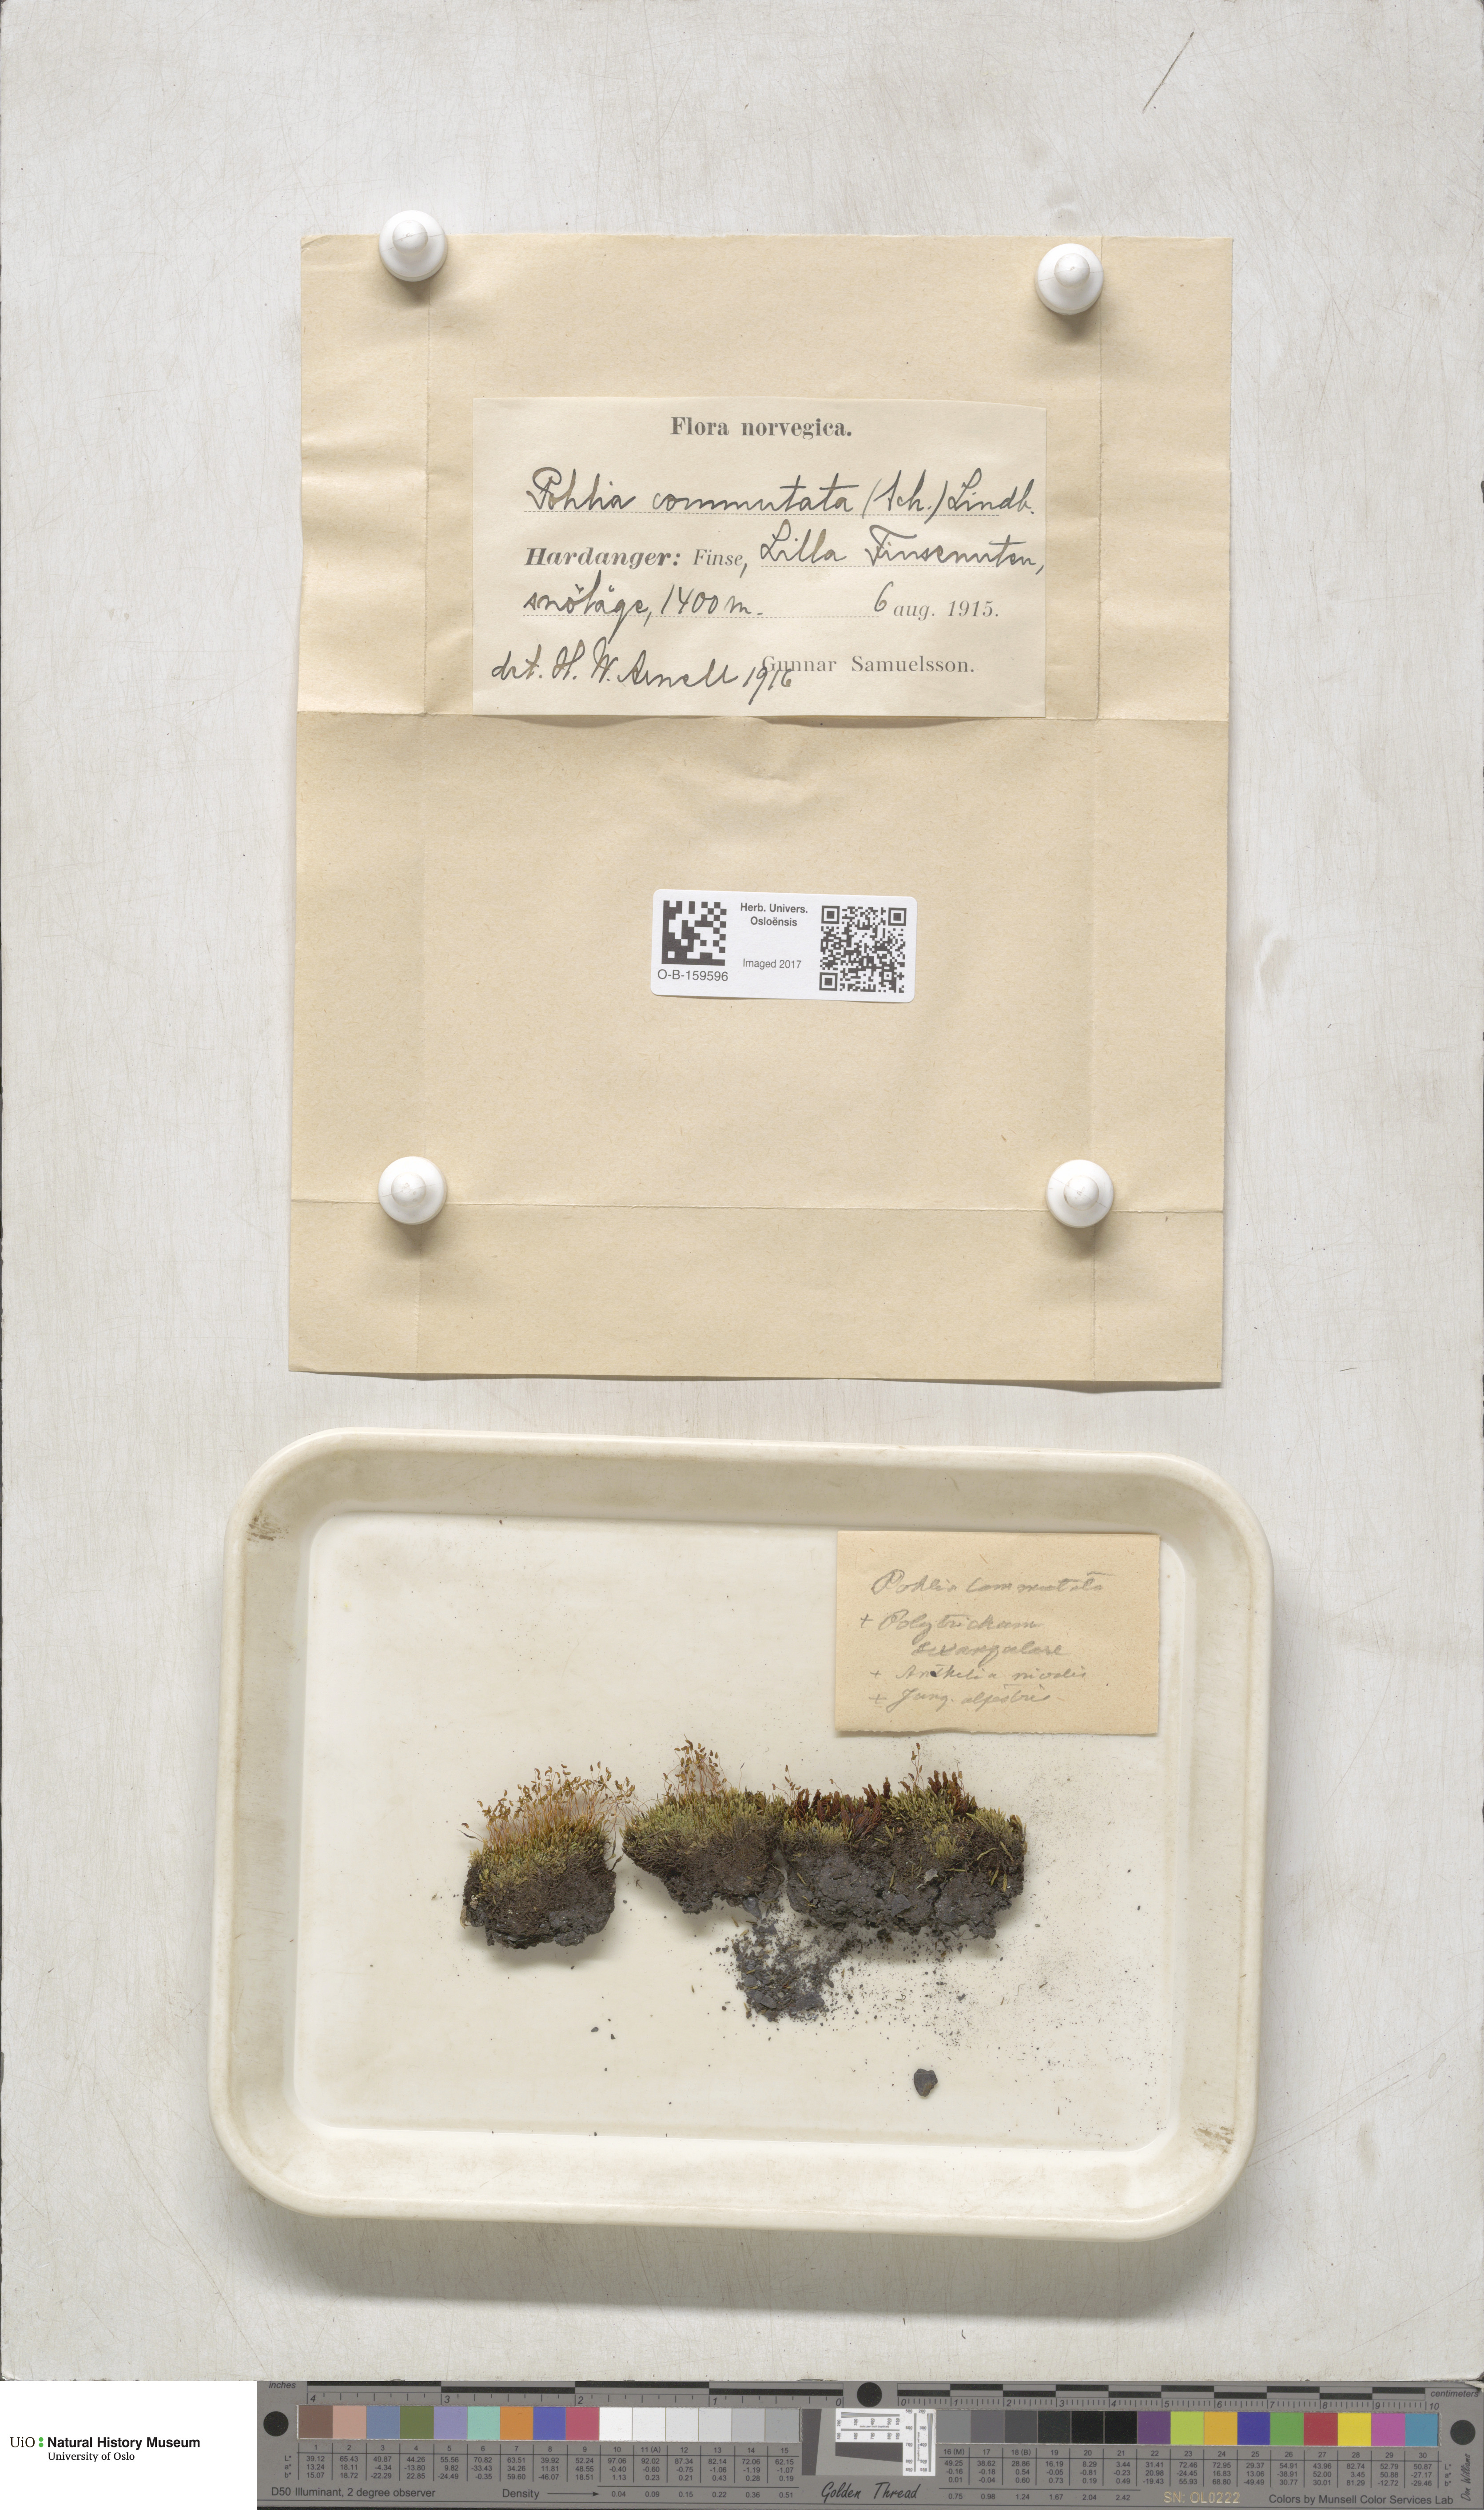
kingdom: Plantae
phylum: Bryophyta
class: Bryopsida
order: Bryales
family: Mniaceae
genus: Pohlia
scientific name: Pohlia drummondii
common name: Drummond's nodding moss
